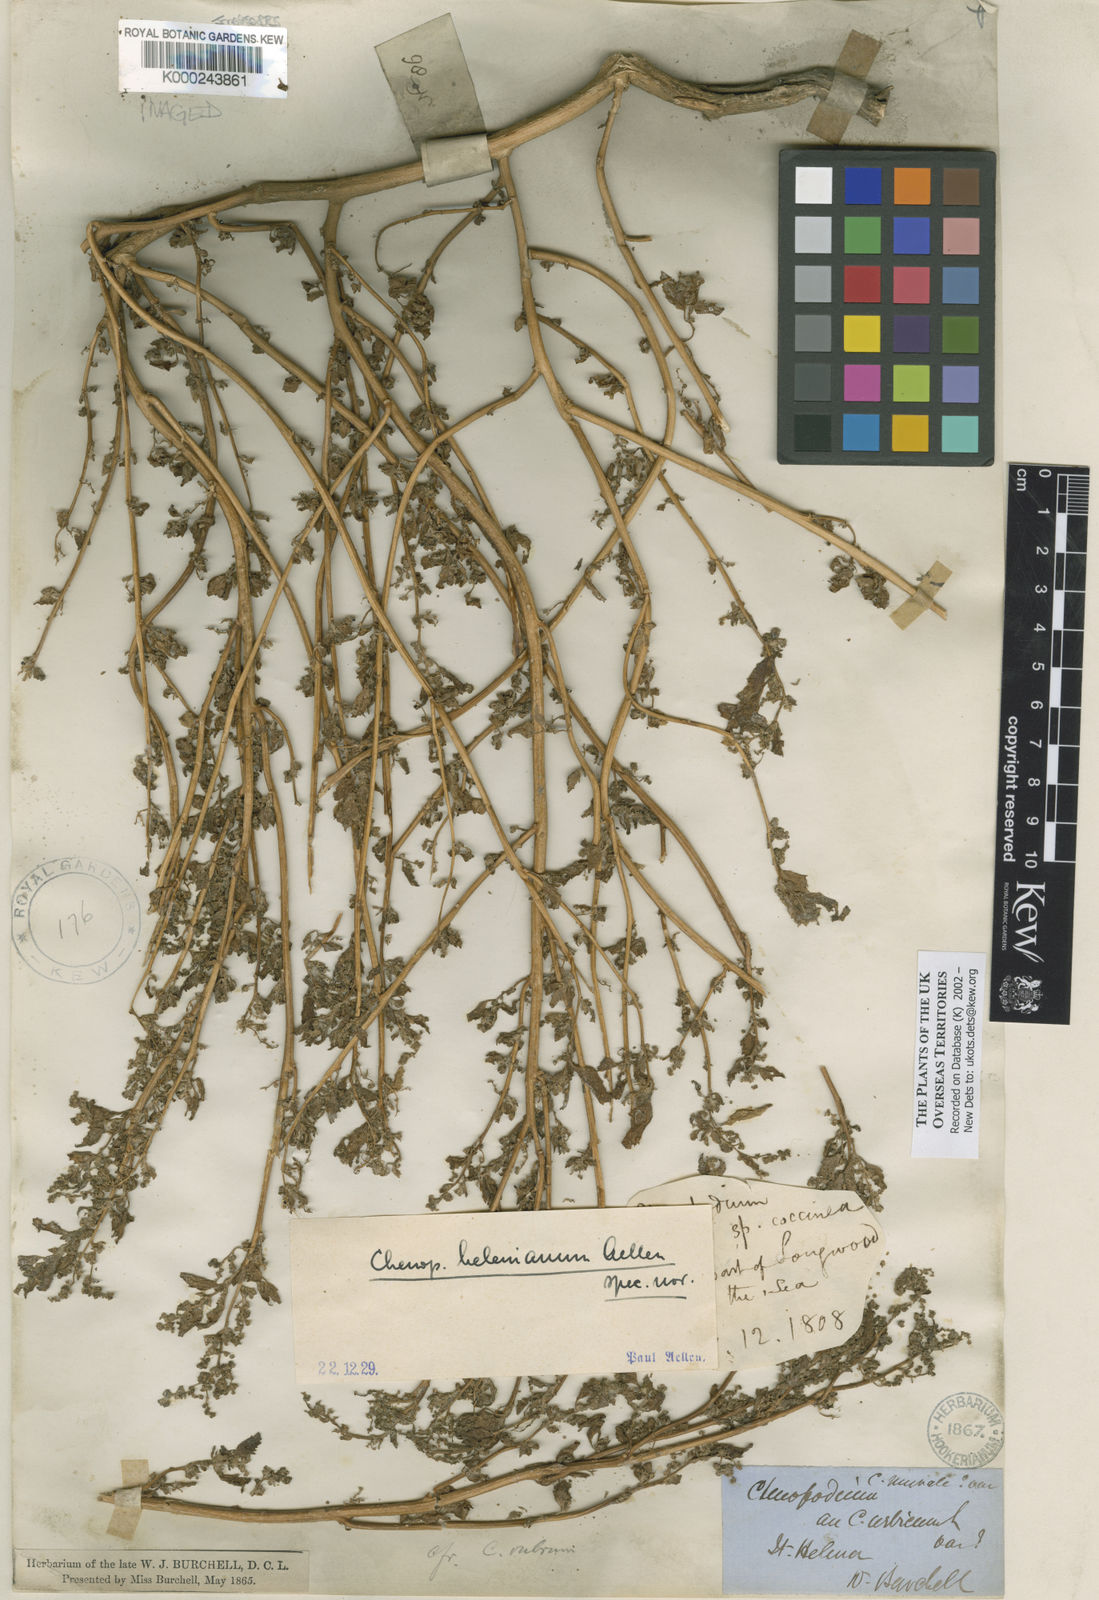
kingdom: Plantae
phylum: Tracheophyta
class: Magnoliopsida
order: Caryophyllales
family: Amaranthaceae
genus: Chenopodium
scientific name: Chenopodium
